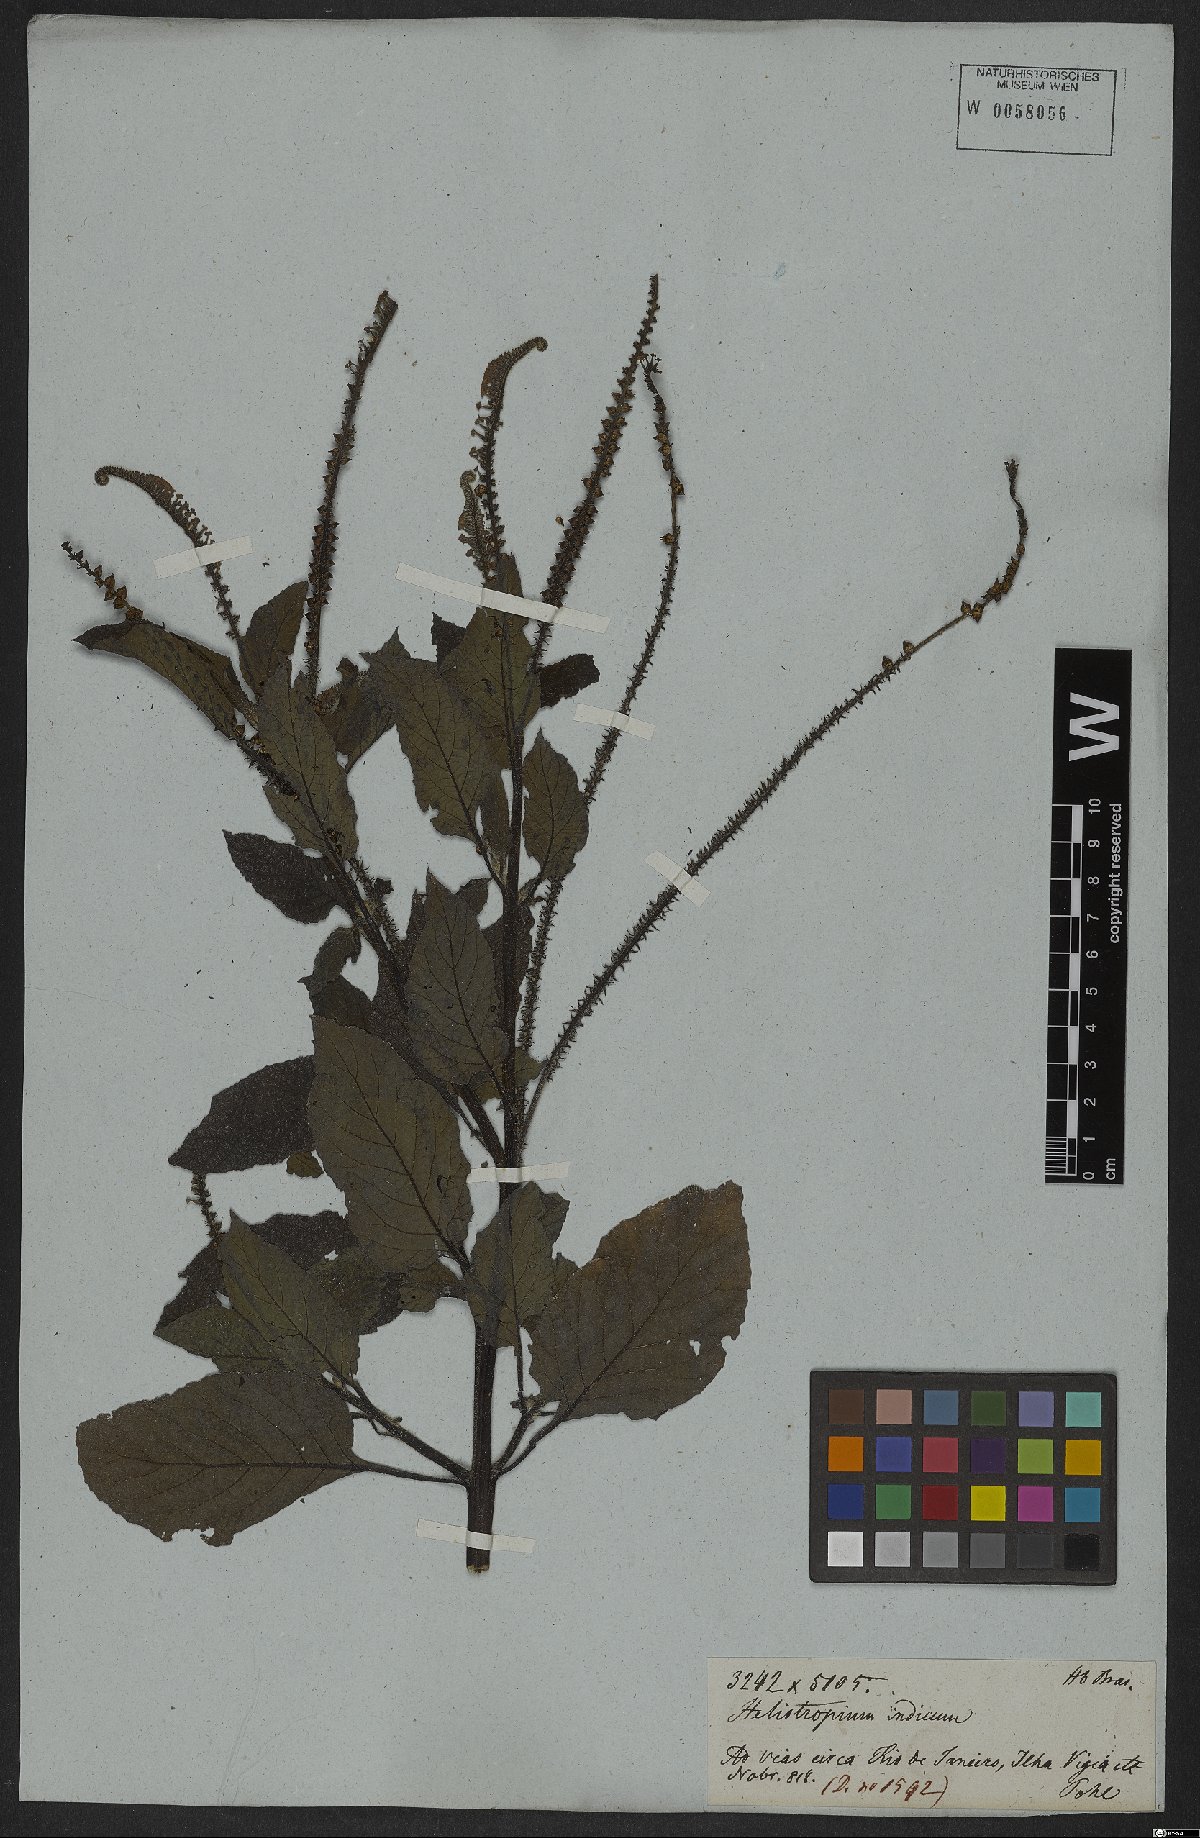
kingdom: Plantae
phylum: Tracheophyta
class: Magnoliopsida
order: Boraginales
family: Heliotropiaceae
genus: Heliotropium
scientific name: Heliotropium indicum
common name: Indian heliotrope
